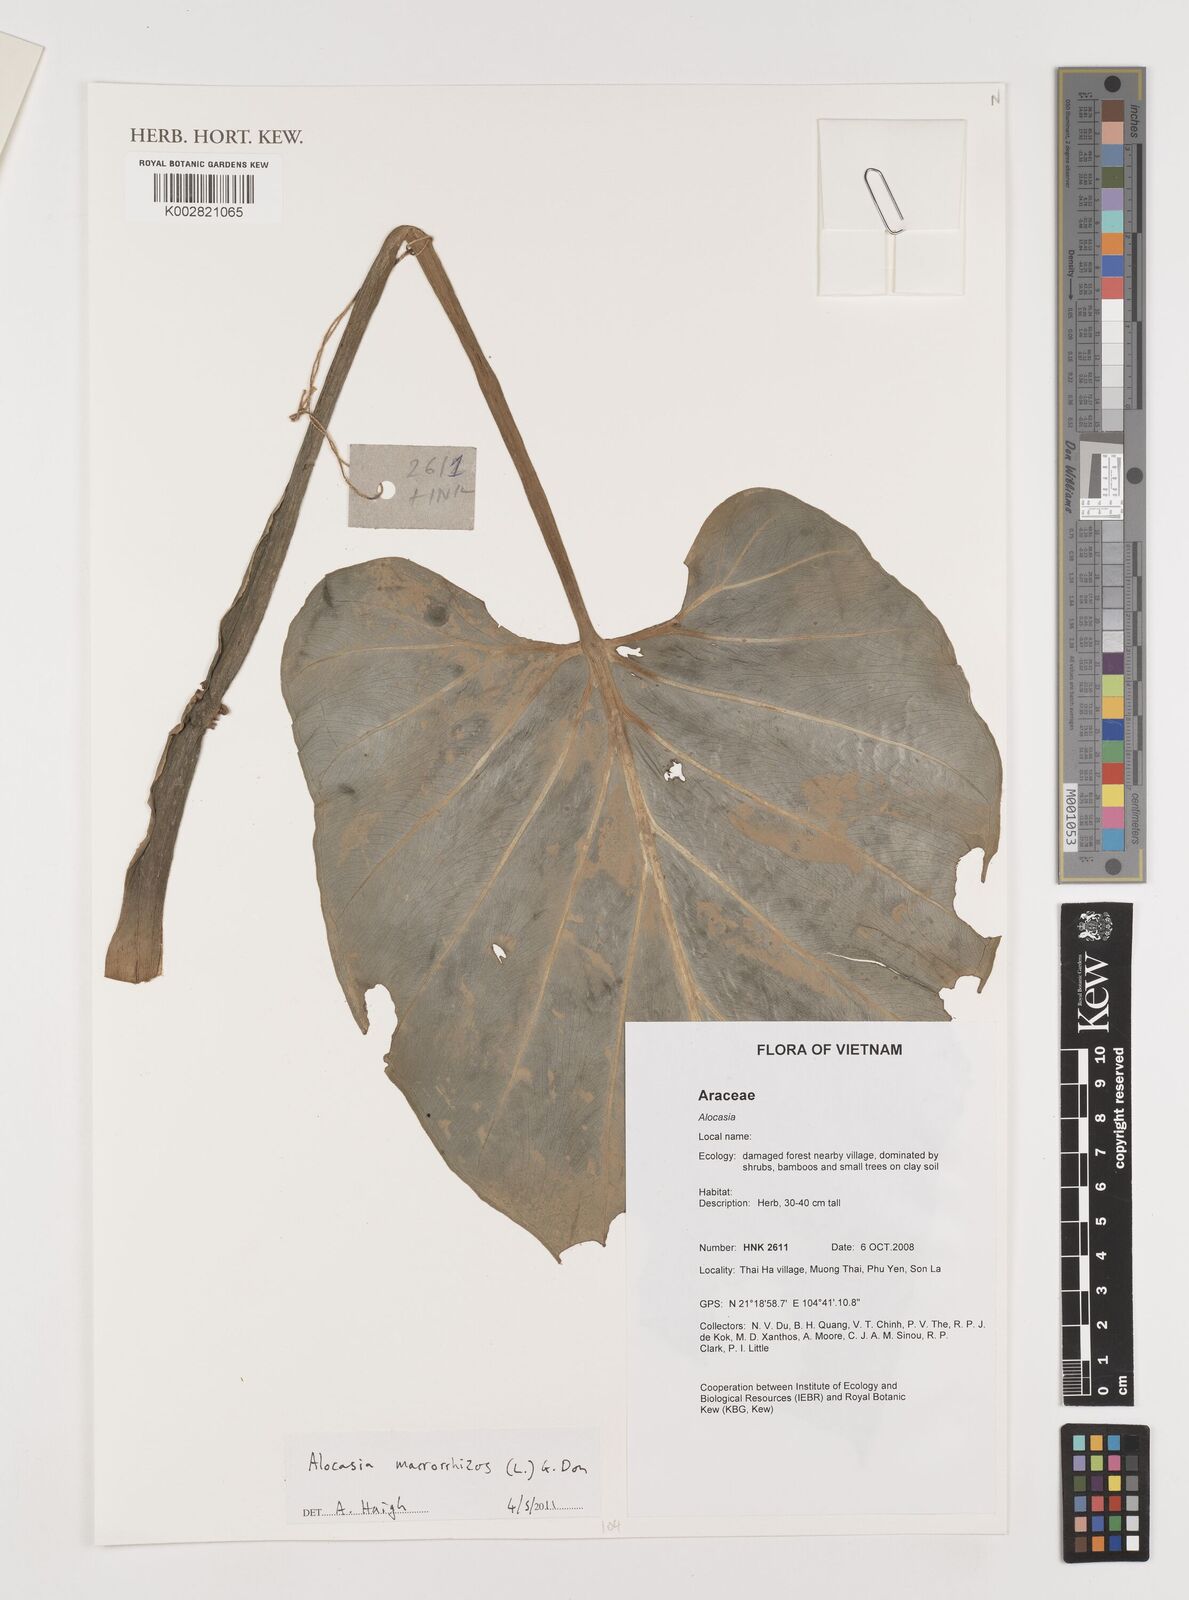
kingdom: Plantae
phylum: Tracheophyta
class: Liliopsida
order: Alismatales
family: Araceae
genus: Alocasia
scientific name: Alocasia macrorrhizos
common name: Giant taro
